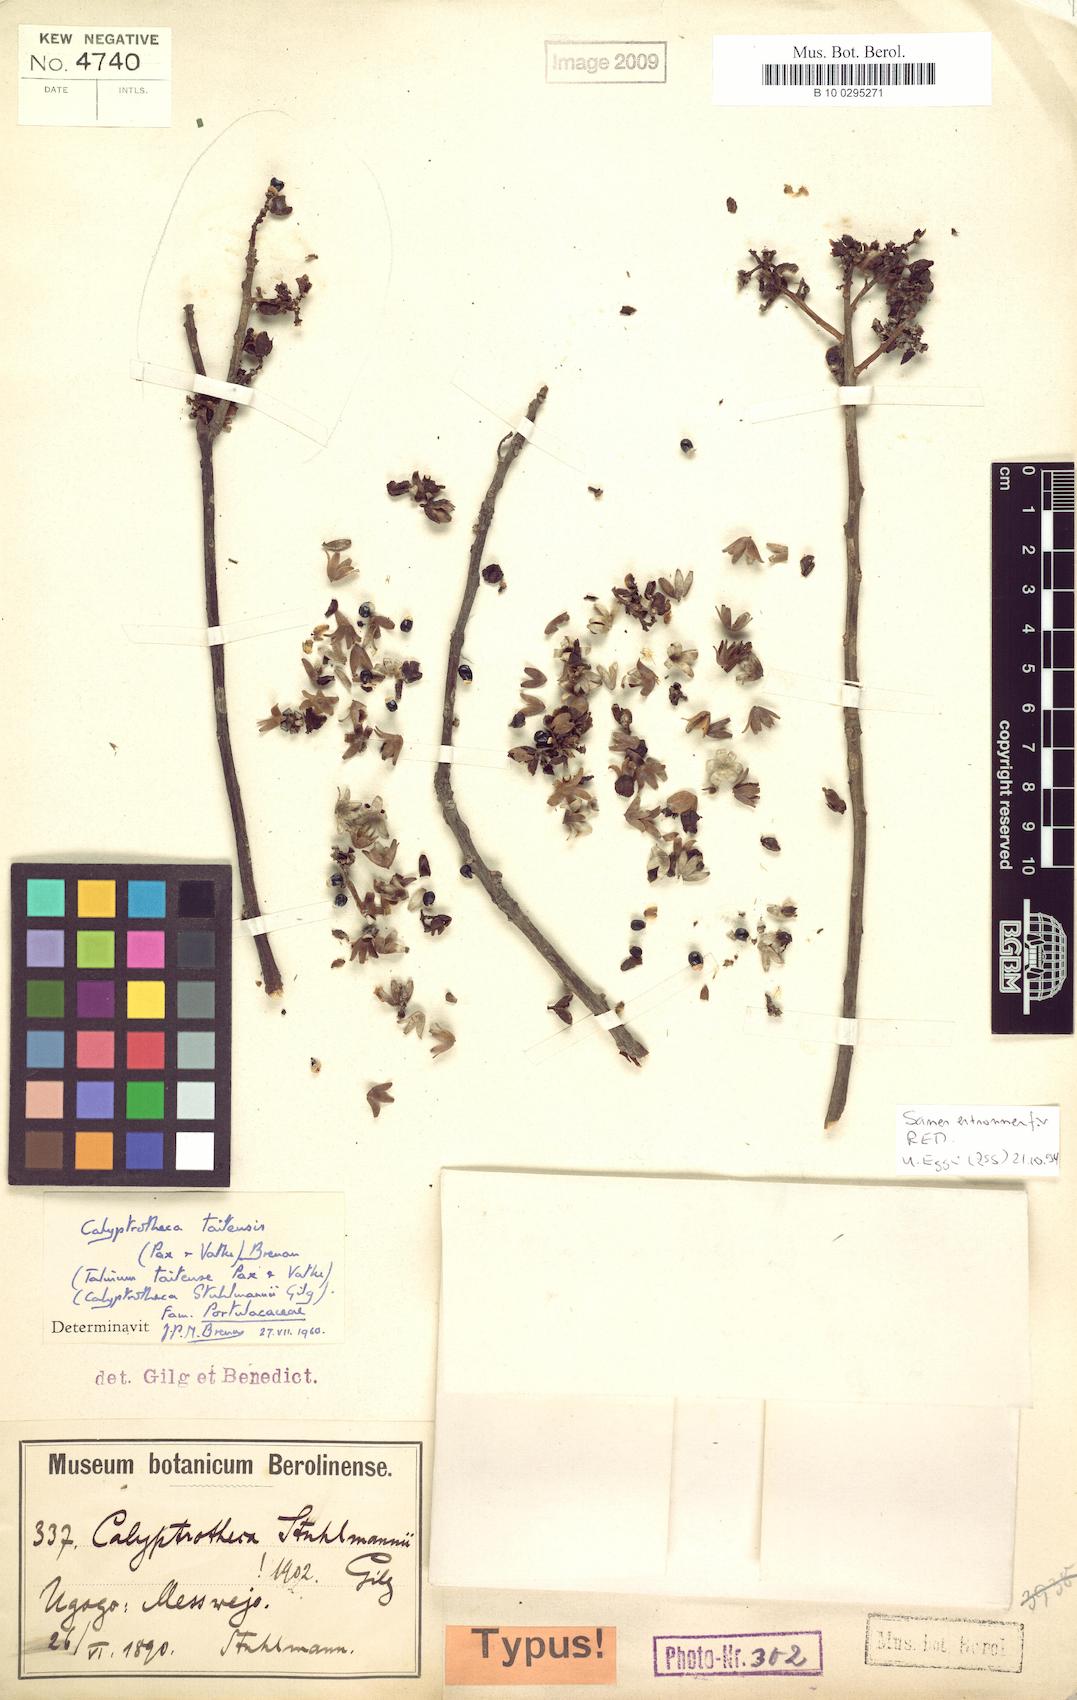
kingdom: Plantae
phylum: Tracheophyta
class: Magnoliopsida
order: Caryophyllales
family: Didiereaceae
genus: Calyptrotheca
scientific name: Calyptrotheca taitense
